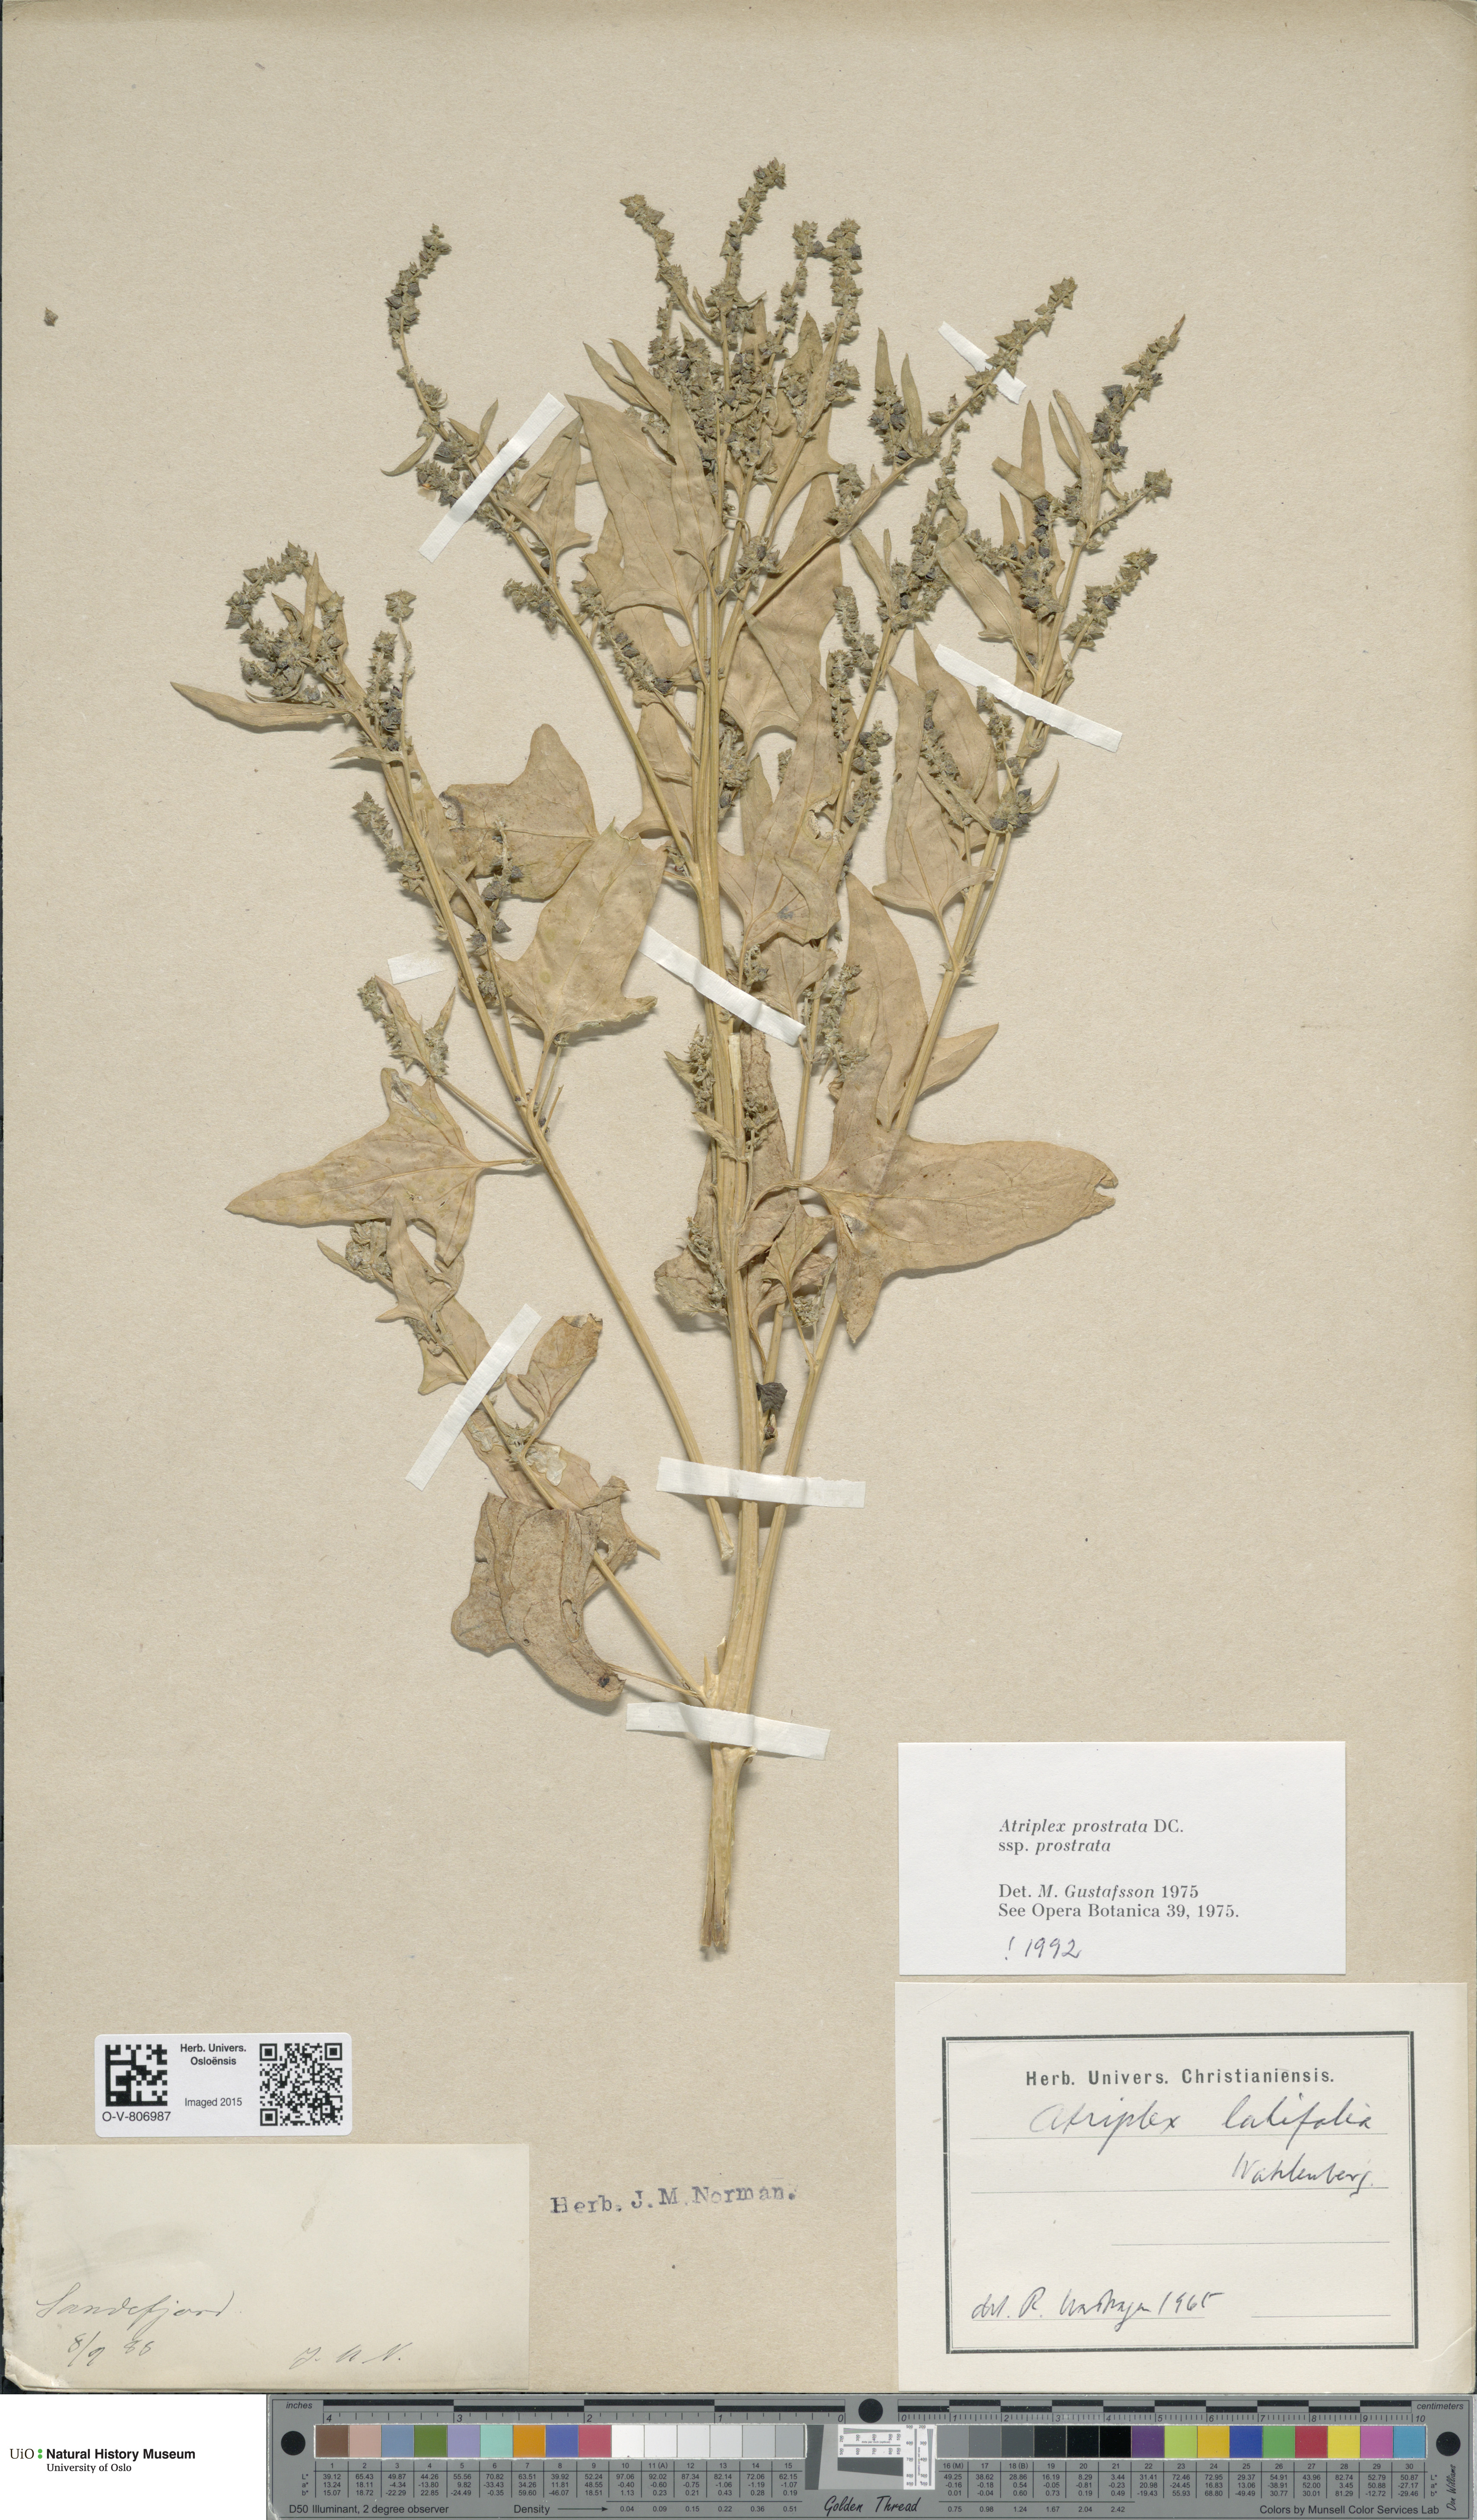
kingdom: Plantae
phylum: Tracheophyta
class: Magnoliopsida
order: Caryophyllales
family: Amaranthaceae
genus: Atriplex
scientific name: Atriplex prostrata
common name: Spear-leaved orache
